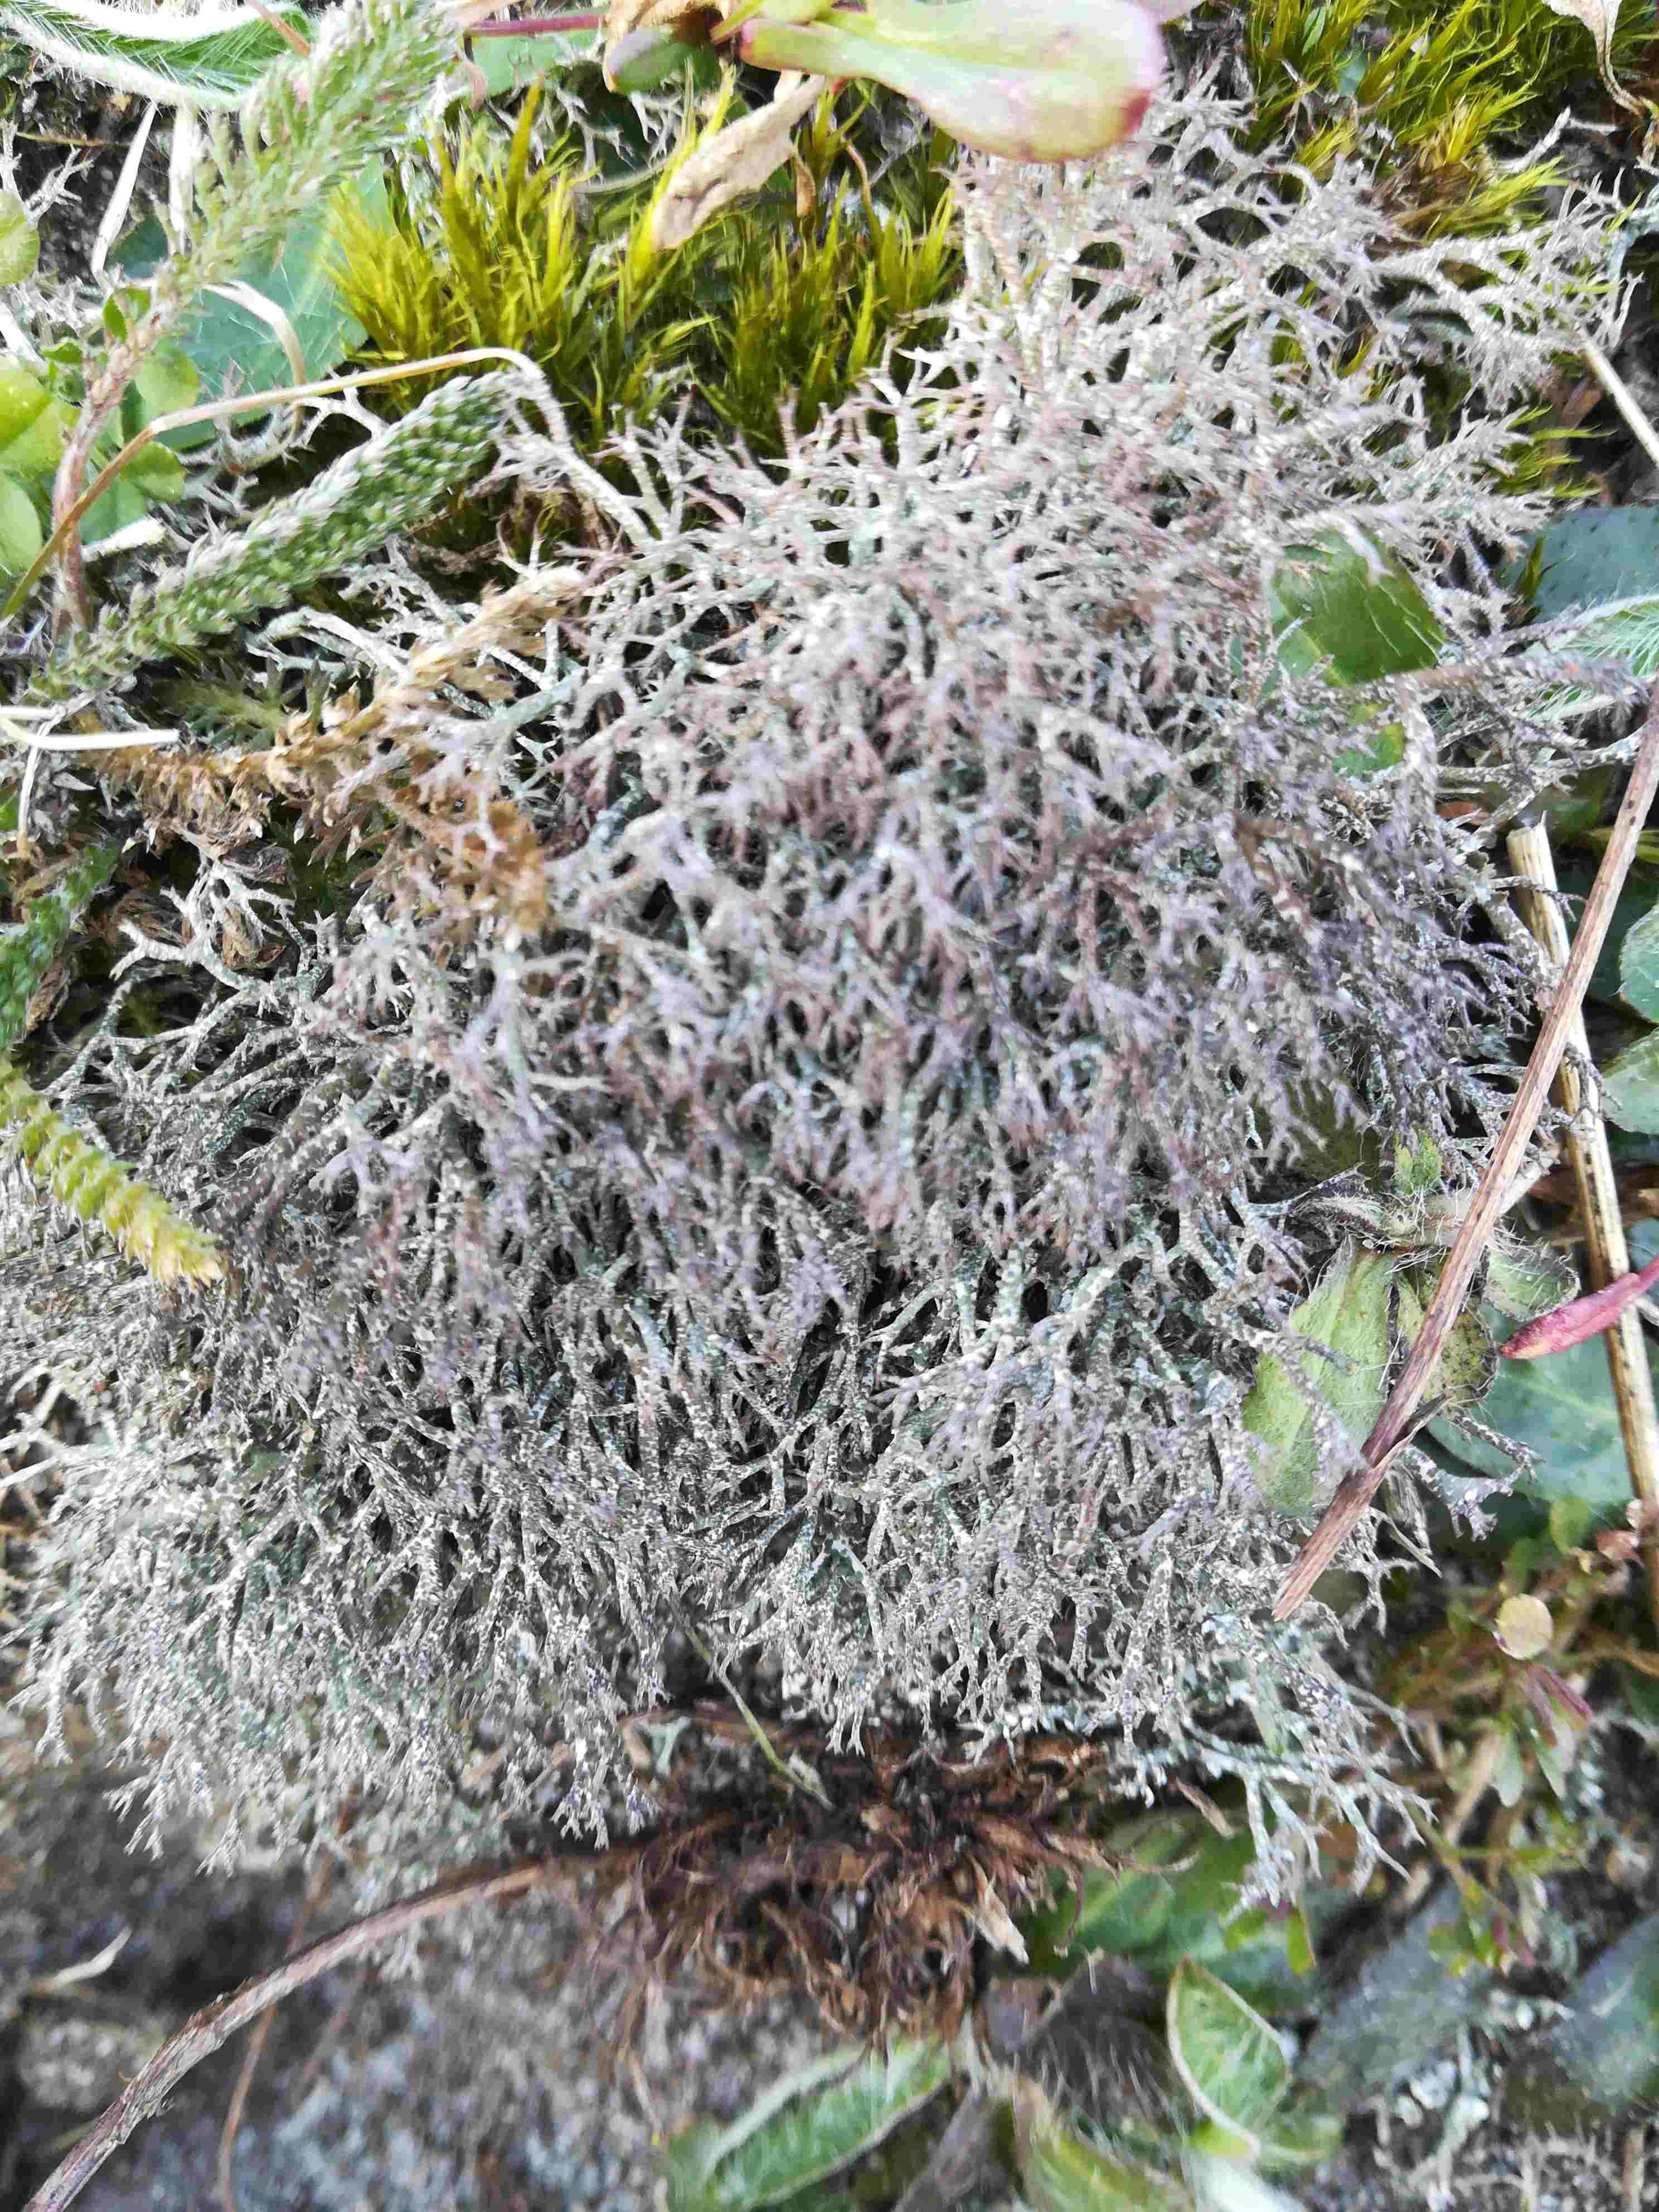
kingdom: Fungi
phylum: Ascomycota
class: Lecanoromycetes
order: Lecanorales
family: Cladoniaceae
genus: Cladonia
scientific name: Cladonia
